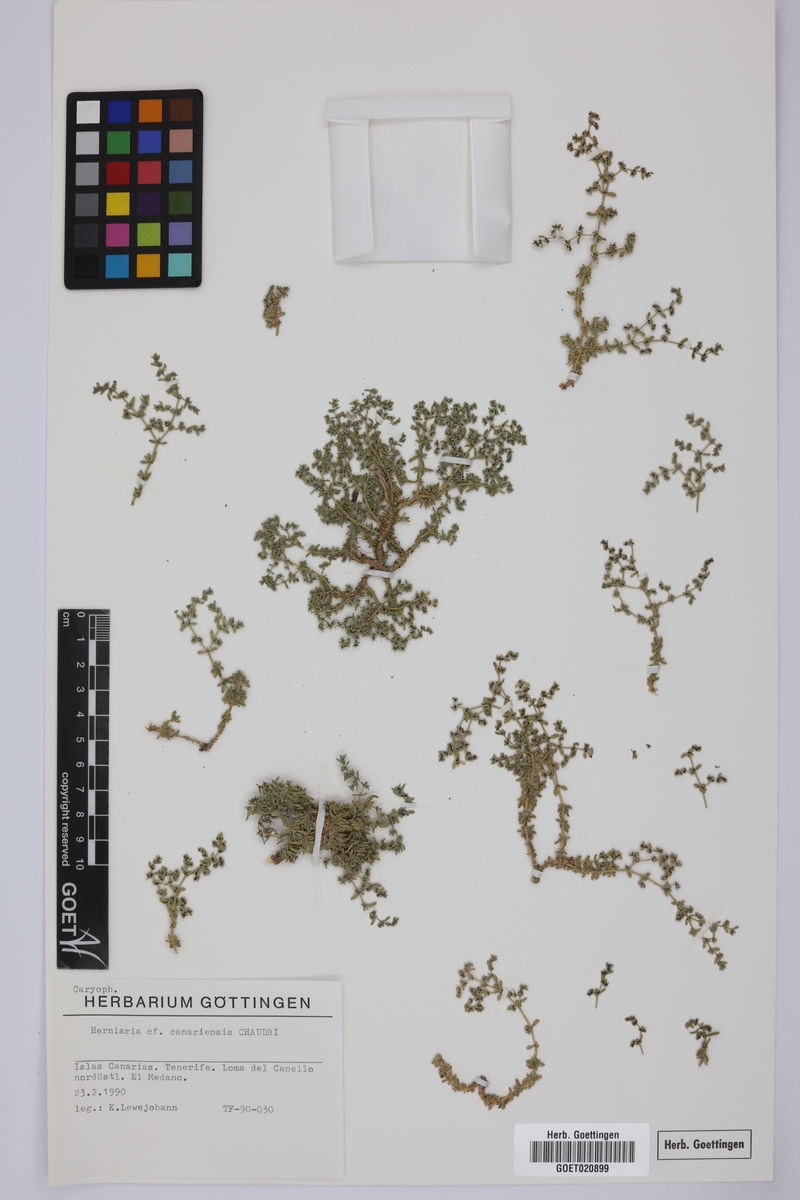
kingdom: Plantae
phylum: Tracheophyta
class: Magnoliopsida
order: Caryophyllales
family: Caryophyllaceae
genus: Herniaria
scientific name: Herniaria canariensis
